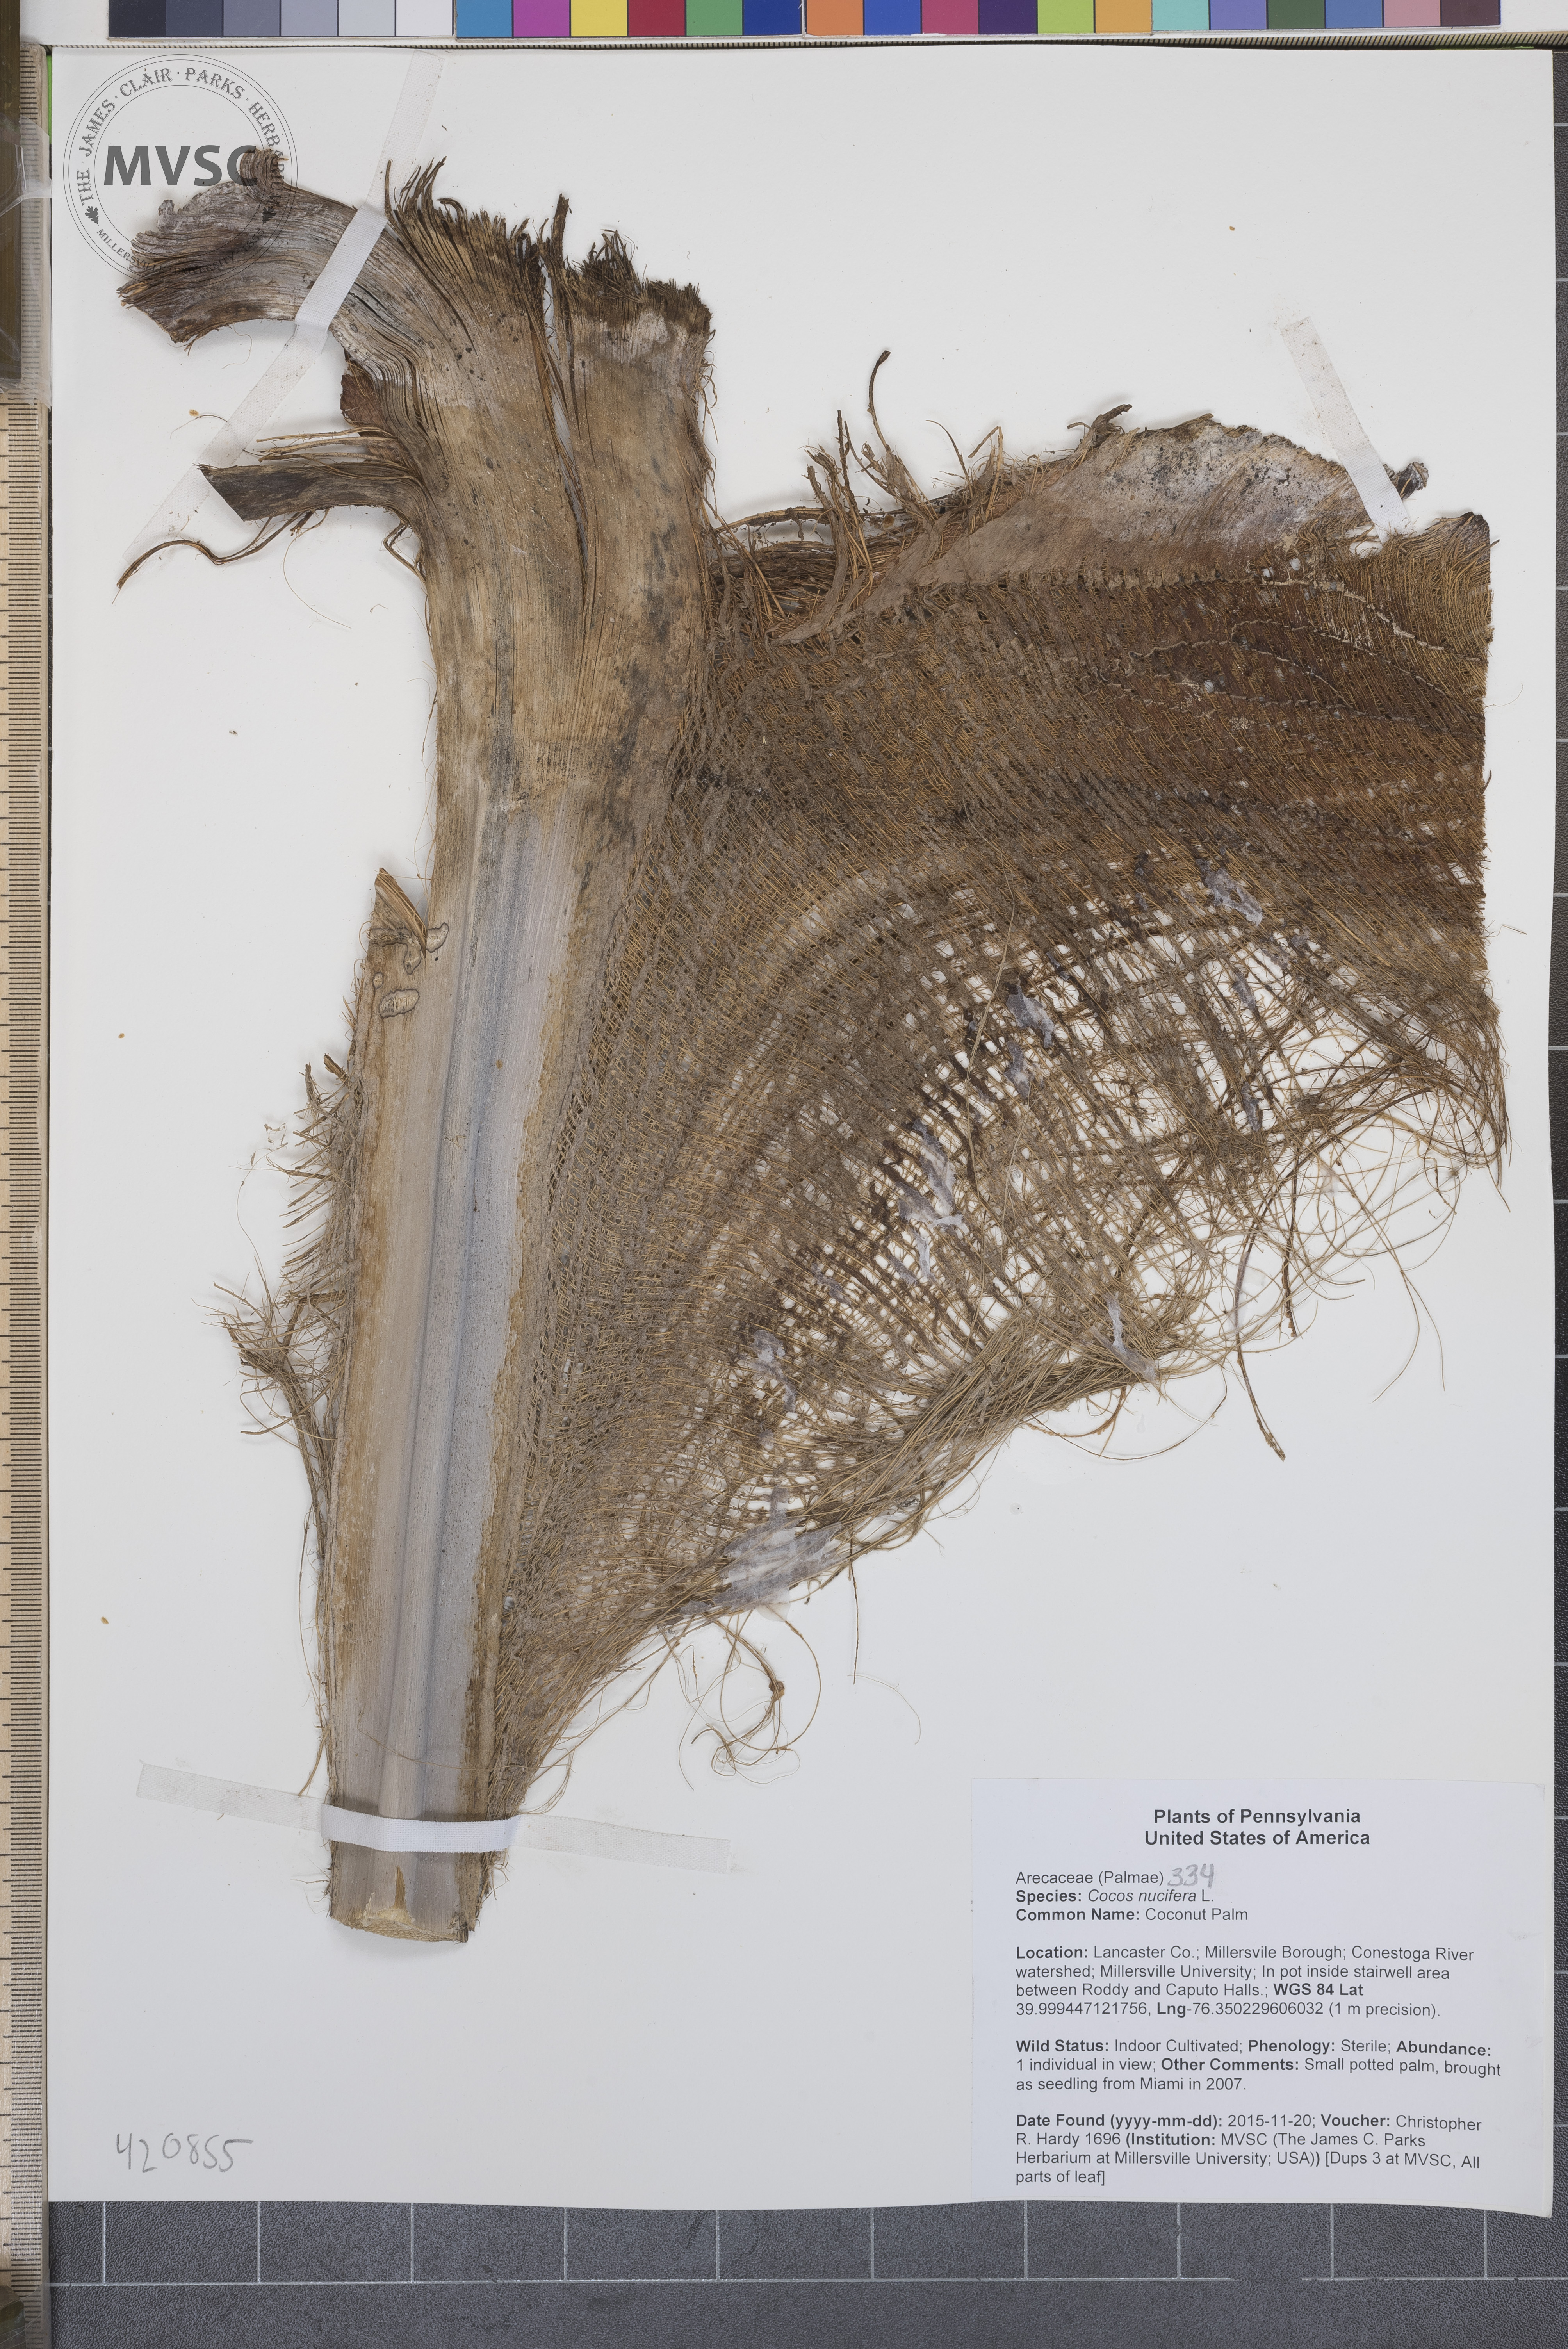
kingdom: Plantae
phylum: Tracheophyta
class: Liliopsida
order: Arecales
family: Arecaceae
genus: Cocos
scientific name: Cocos nucifera
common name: Coconut Palm
